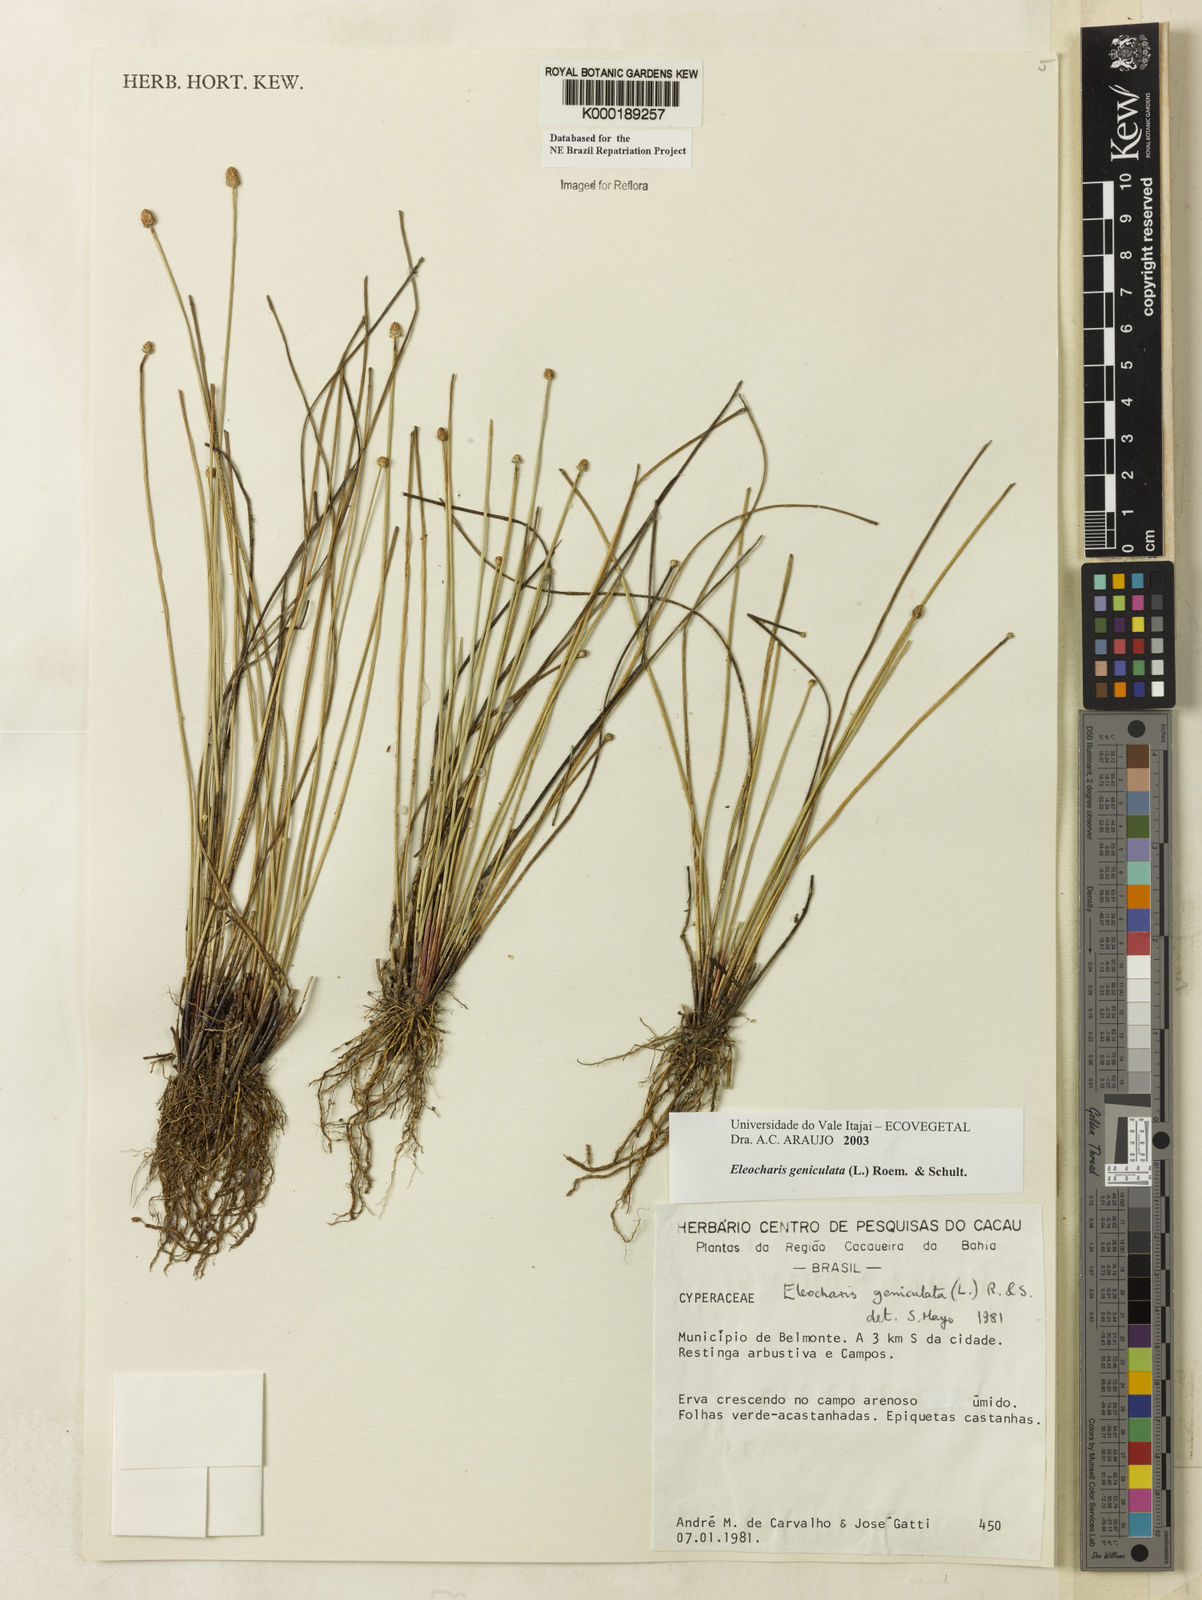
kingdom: Plantae
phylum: Tracheophyta
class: Liliopsida
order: Poales
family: Cyperaceae
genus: Eleocharis
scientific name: Eleocharis geniculata
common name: Canada spikesedge
